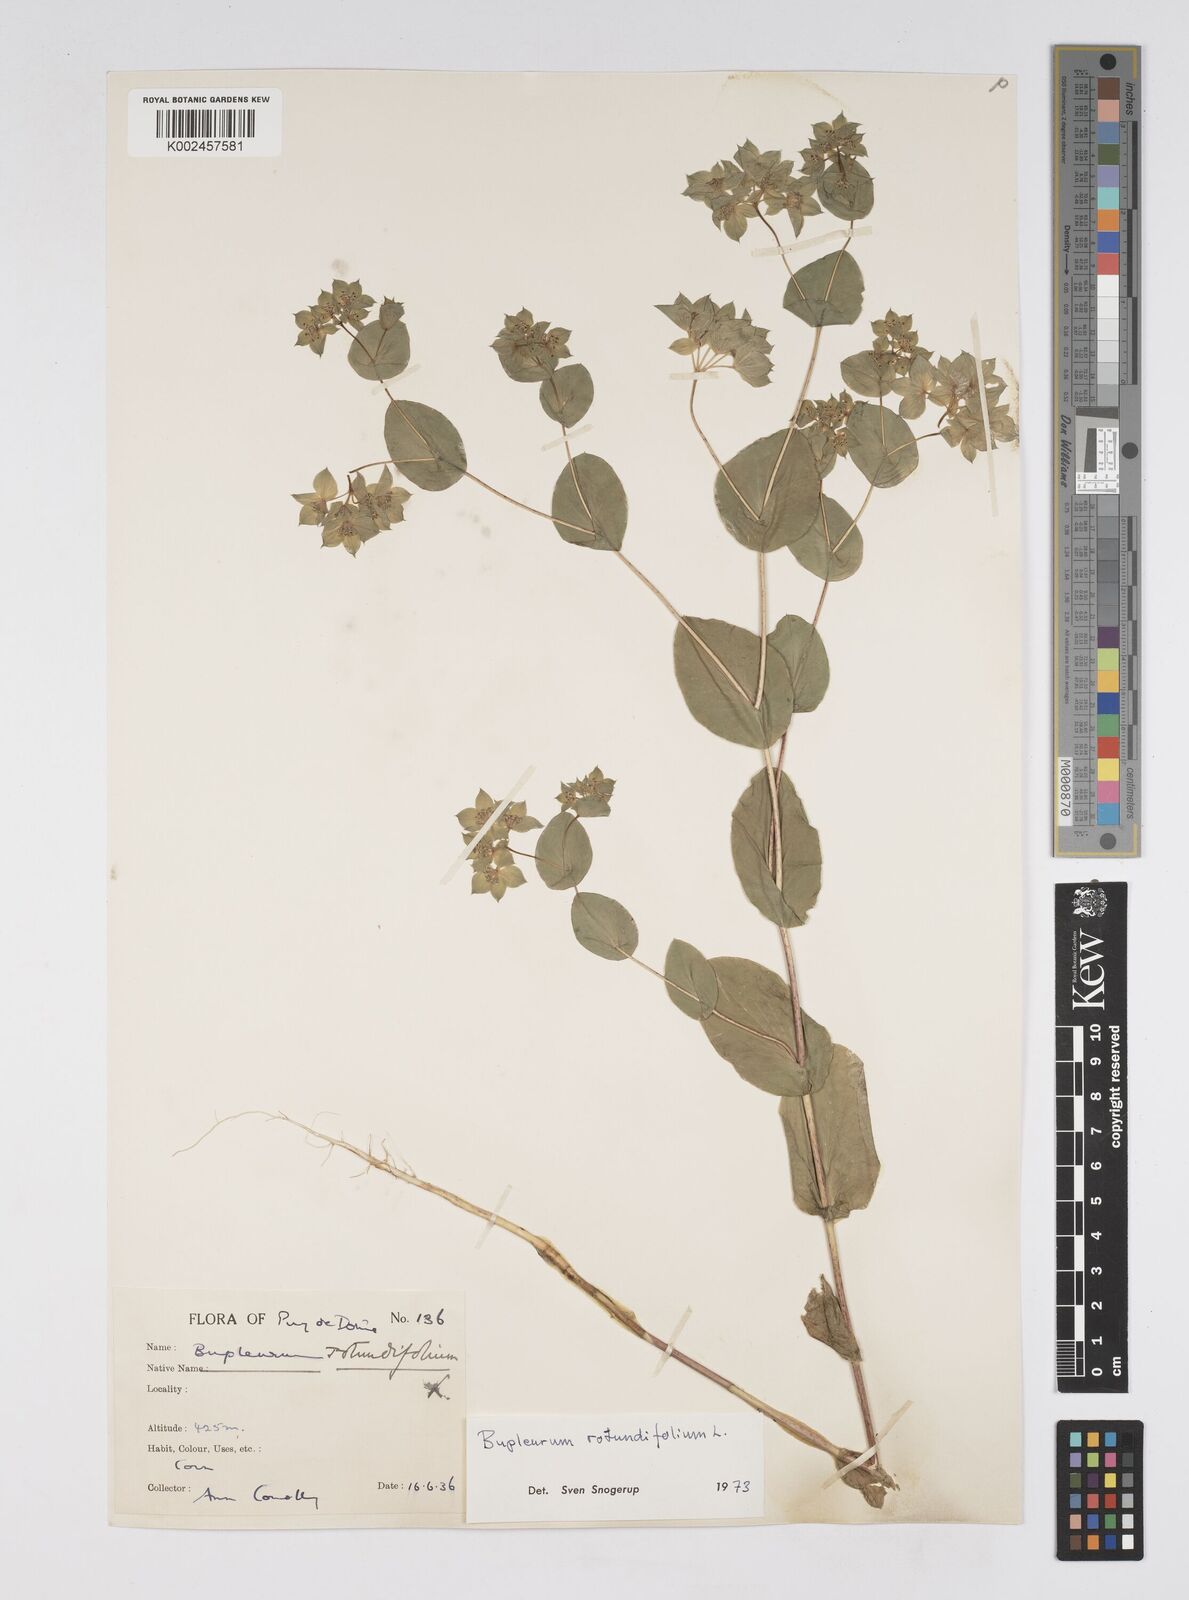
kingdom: Plantae
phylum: Tracheophyta
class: Magnoliopsida
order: Apiales
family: Apiaceae
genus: Bupleurum
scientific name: Bupleurum rotundifolium
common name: Thorow-wax
